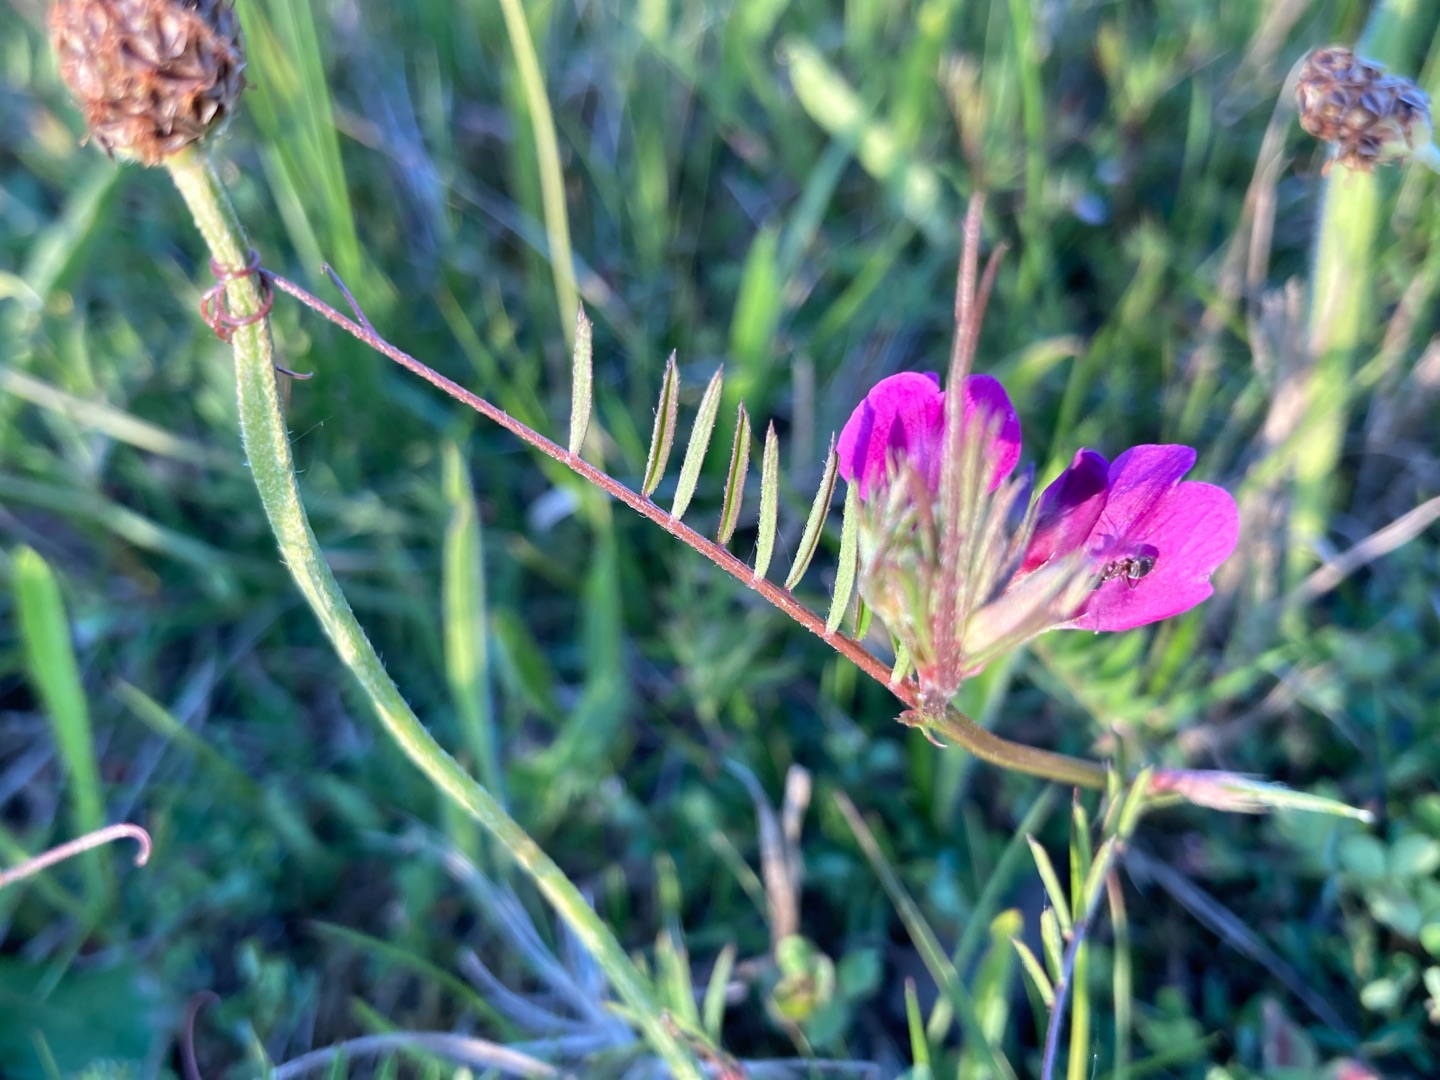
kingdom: Plantae
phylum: Tracheophyta
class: Magnoliopsida
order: Fabales
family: Fabaceae
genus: Vicia
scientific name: Vicia sativa
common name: Smalbladet vikke
